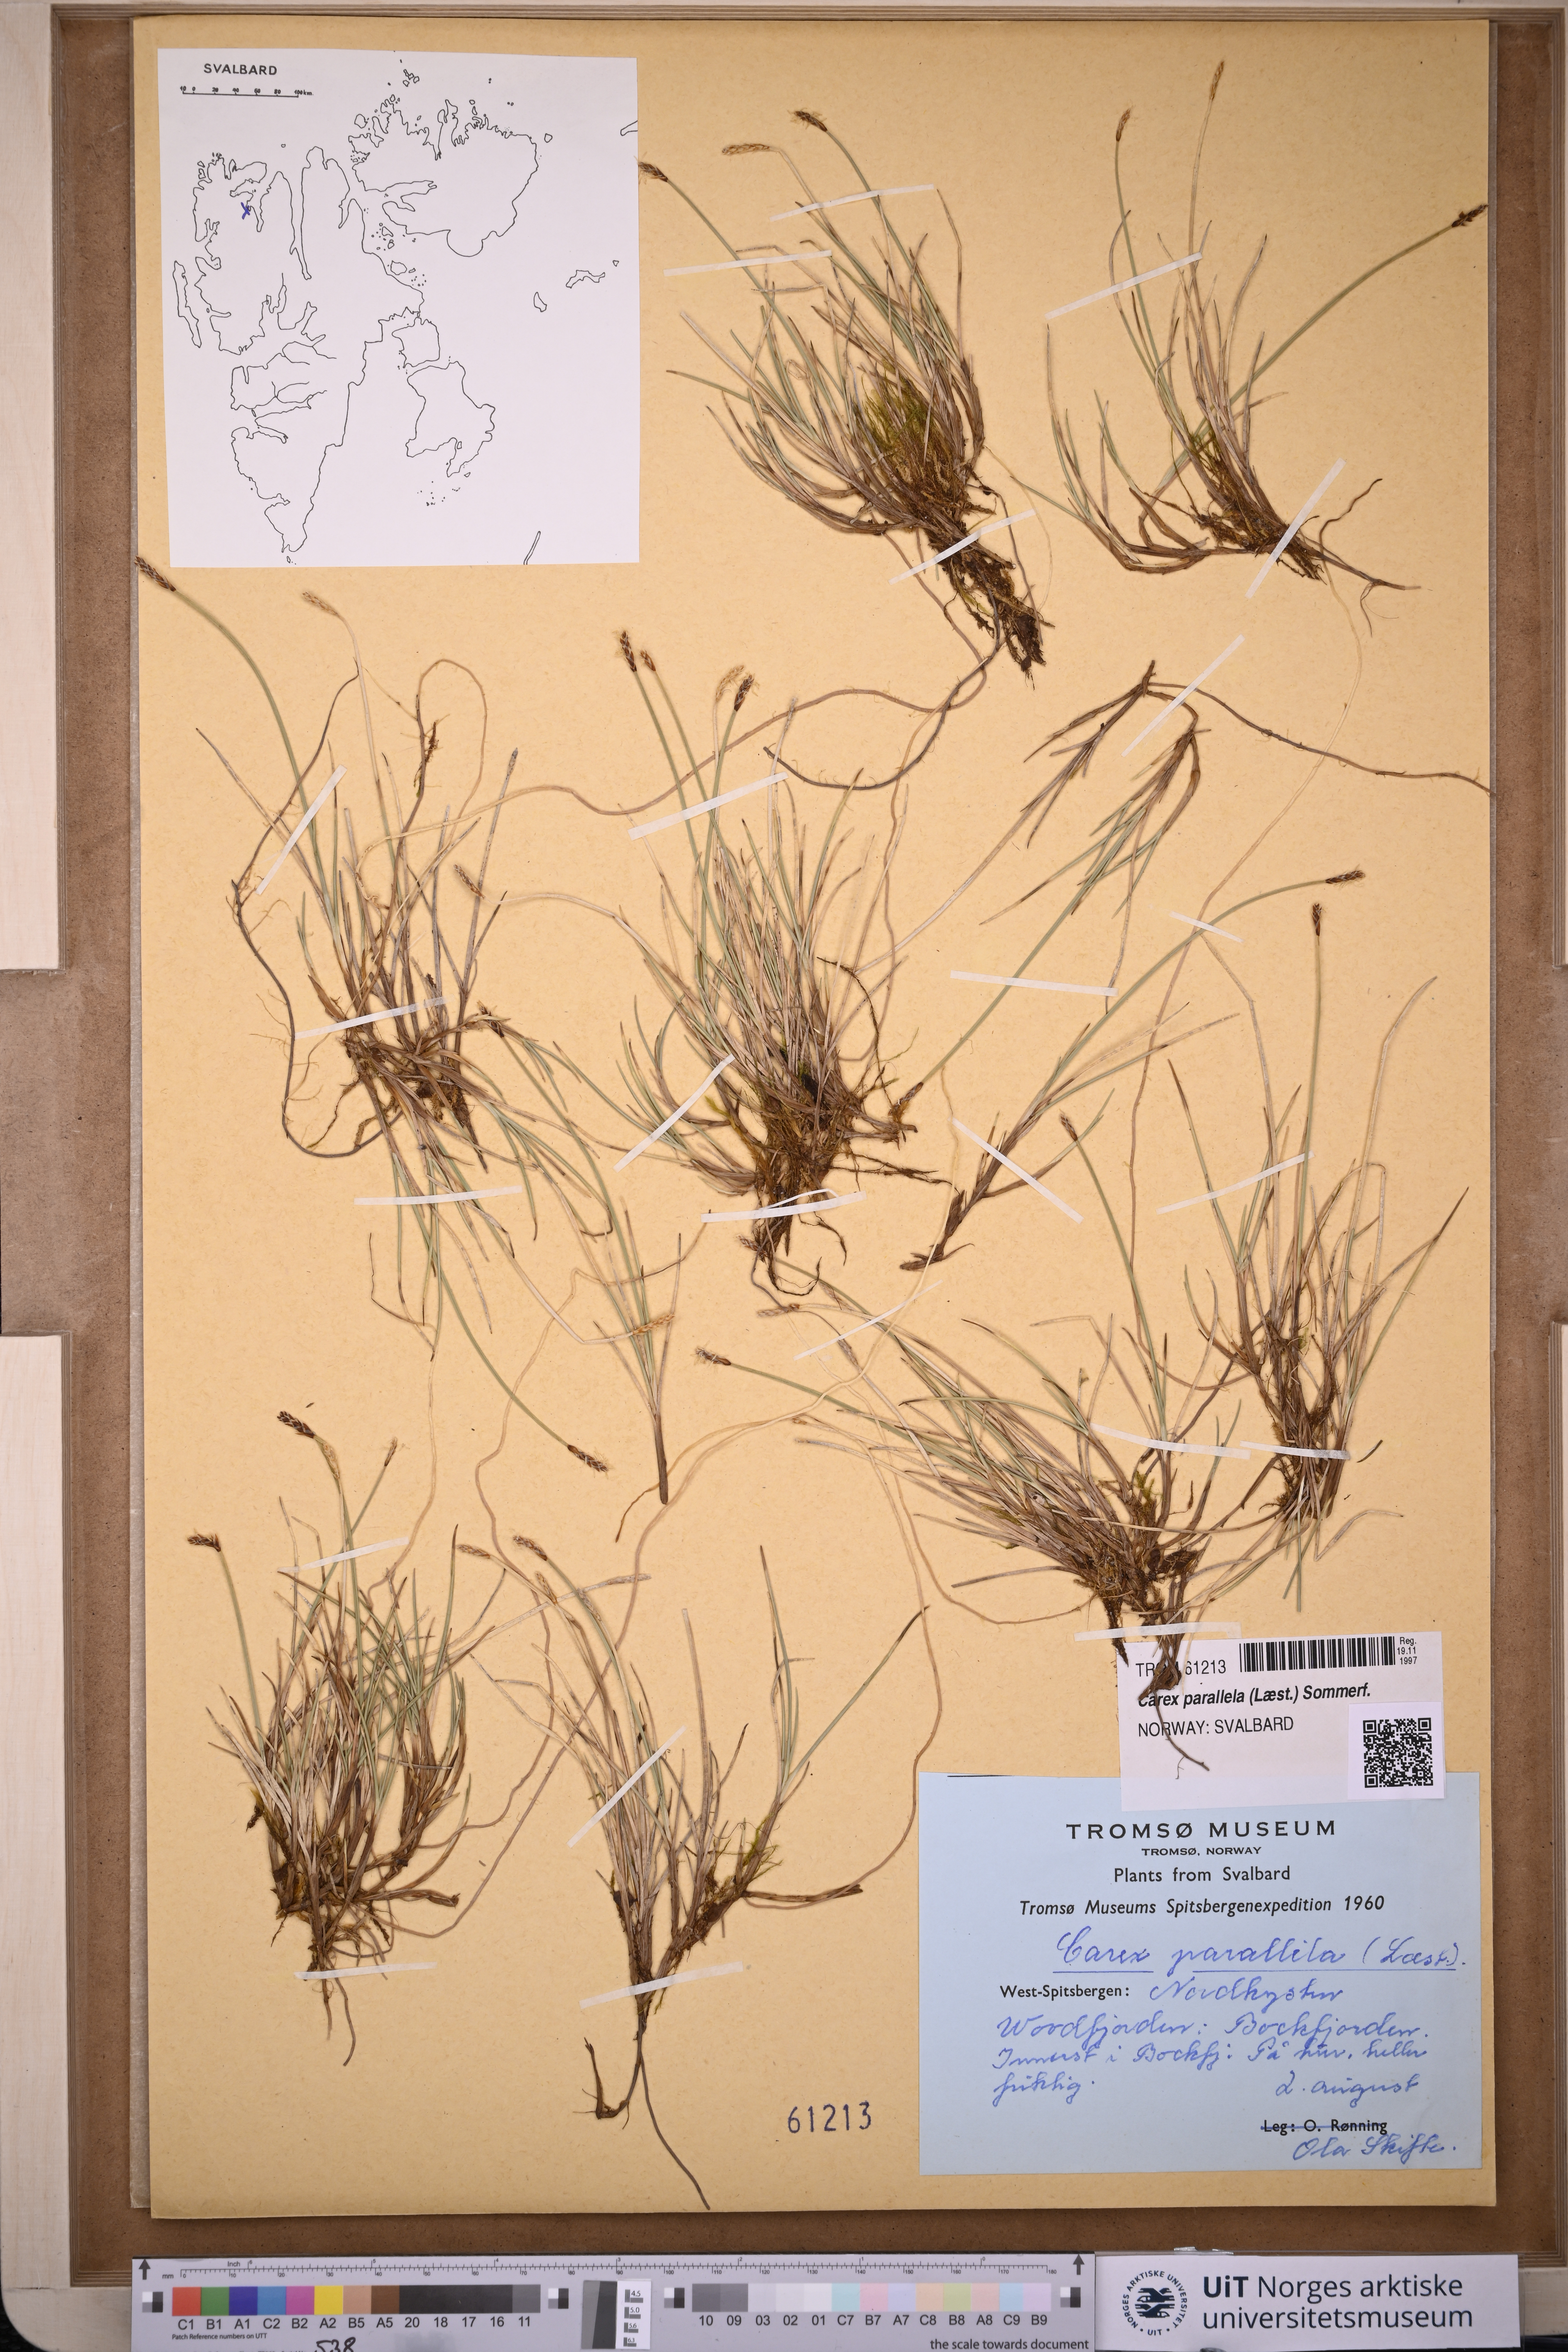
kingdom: Plantae
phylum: Tracheophyta
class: Liliopsida
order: Poales
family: Cyperaceae
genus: Carex
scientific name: Carex parallela
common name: Parallel sedge
